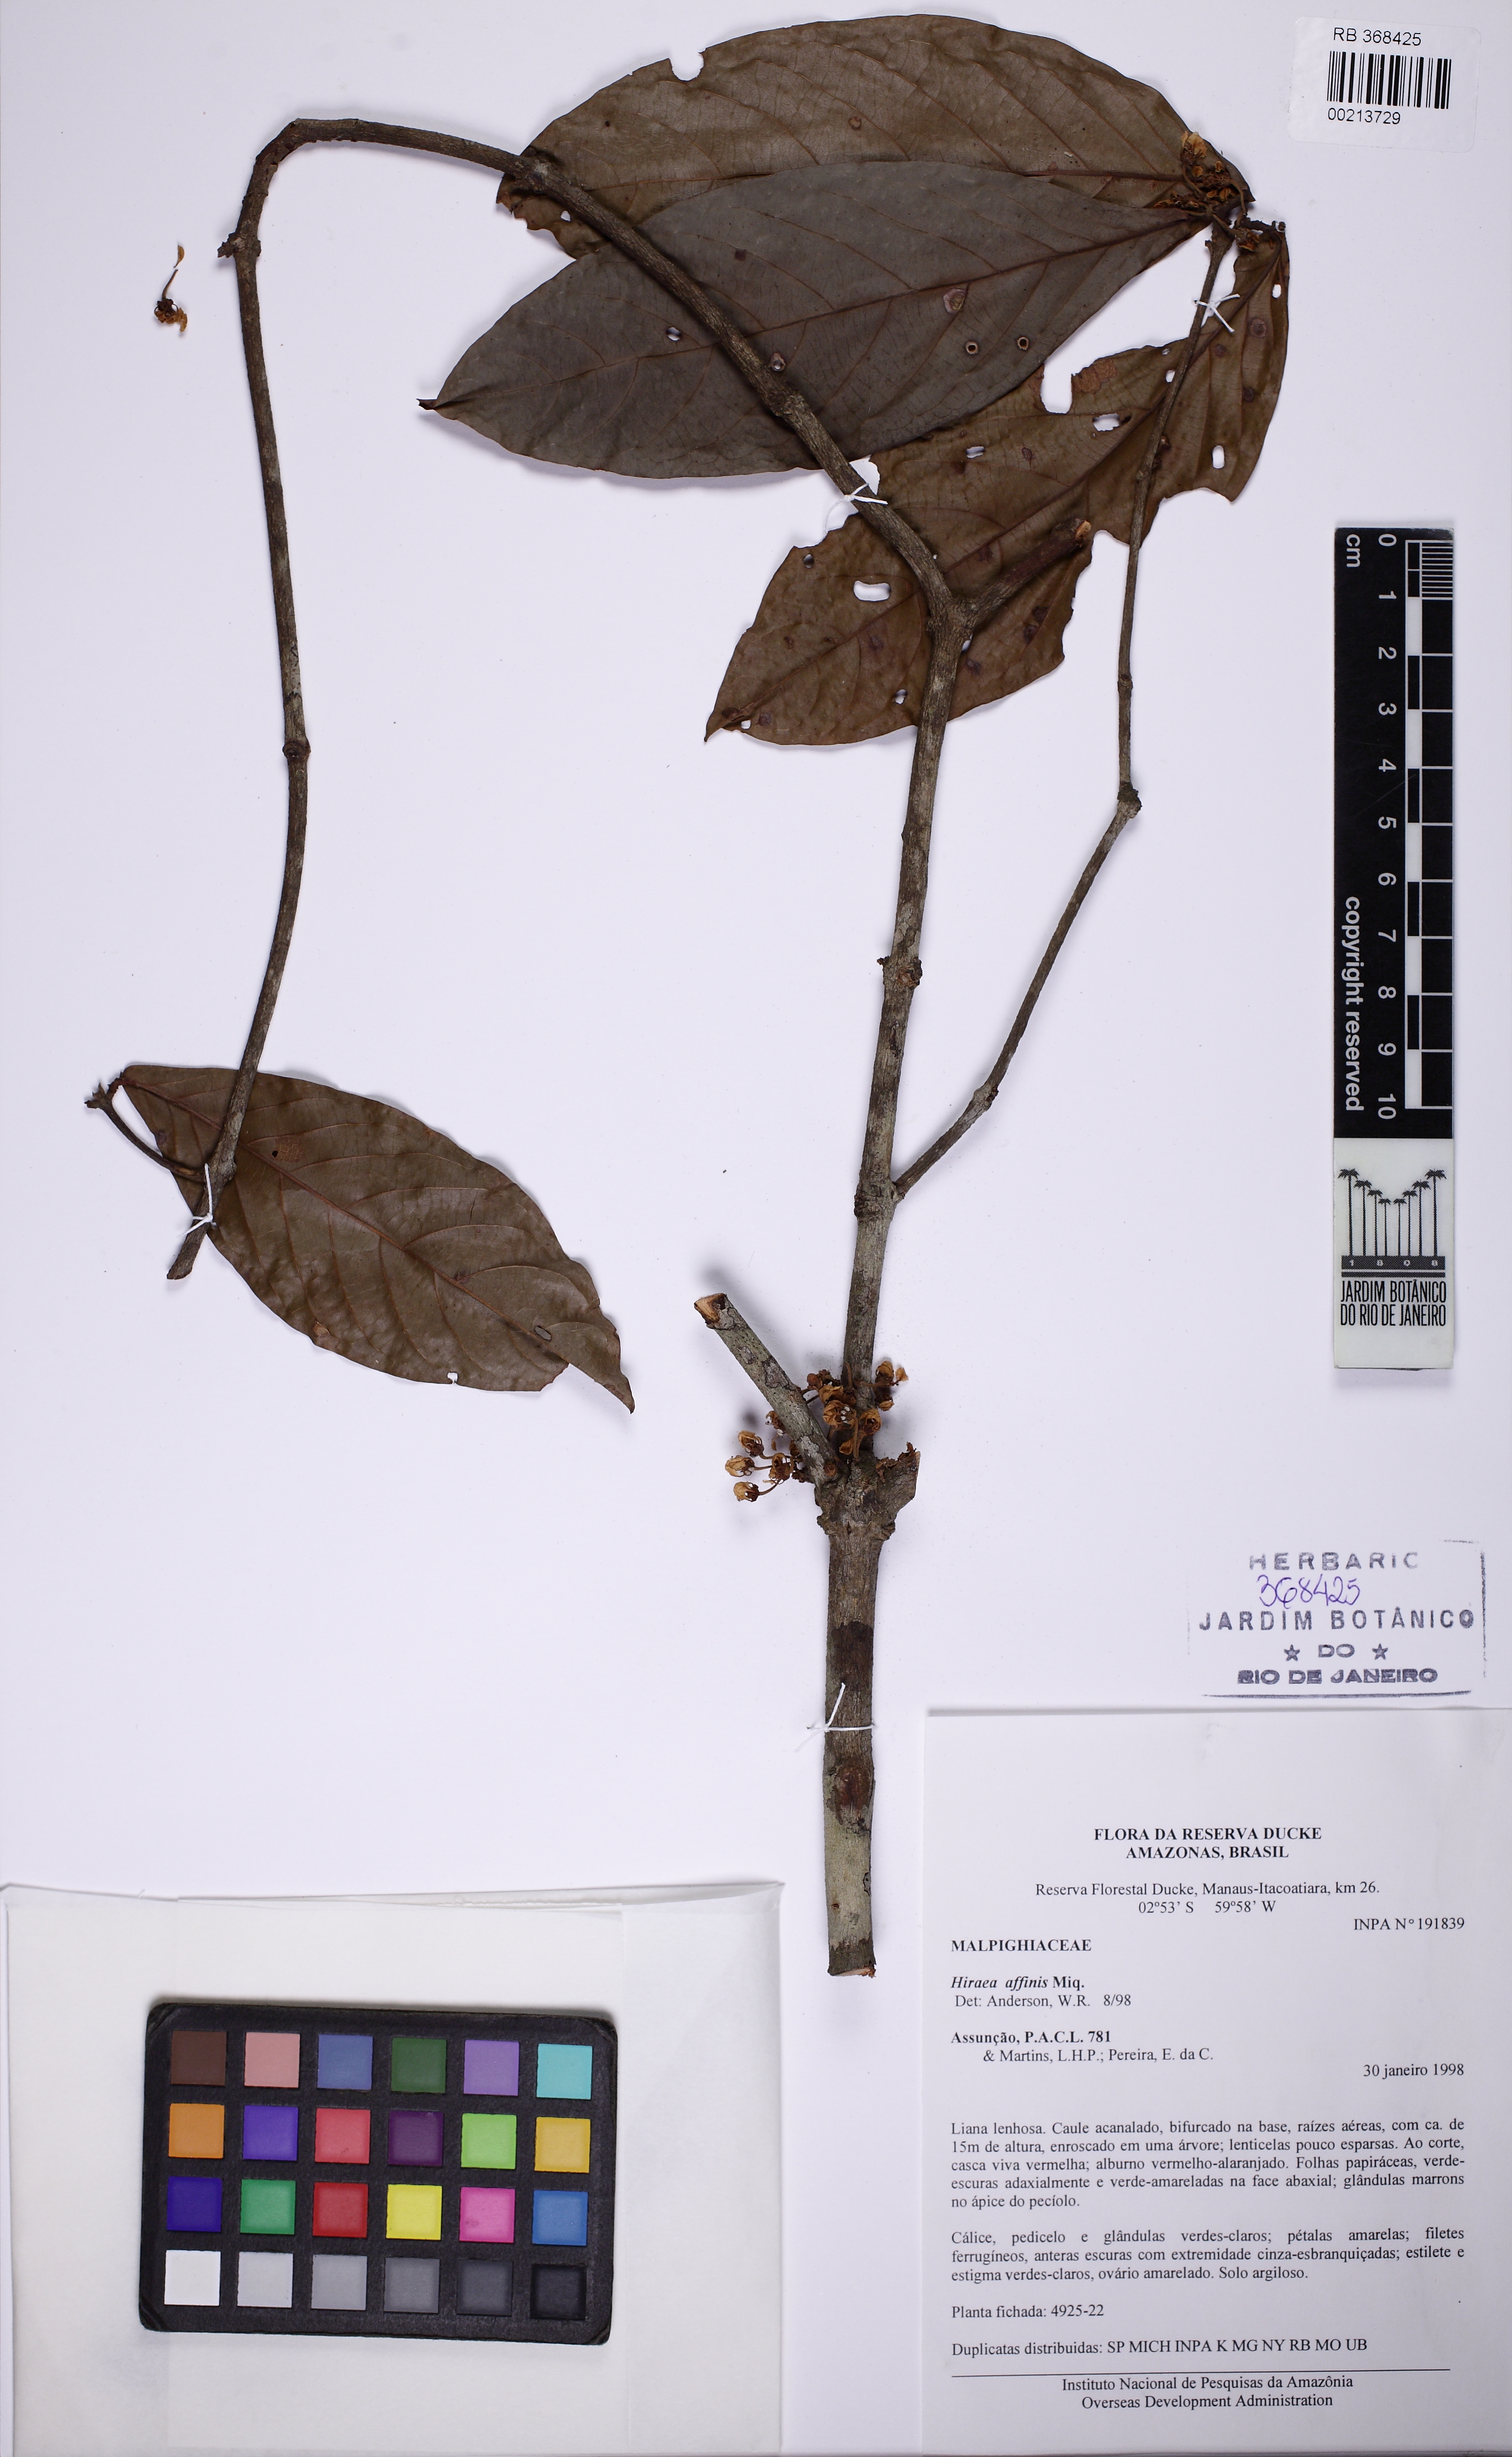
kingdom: Plantae
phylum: Tracheophyta
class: Magnoliopsida
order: Malpighiales
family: Malpighiaceae
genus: Hiraea
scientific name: Hiraea affinis
